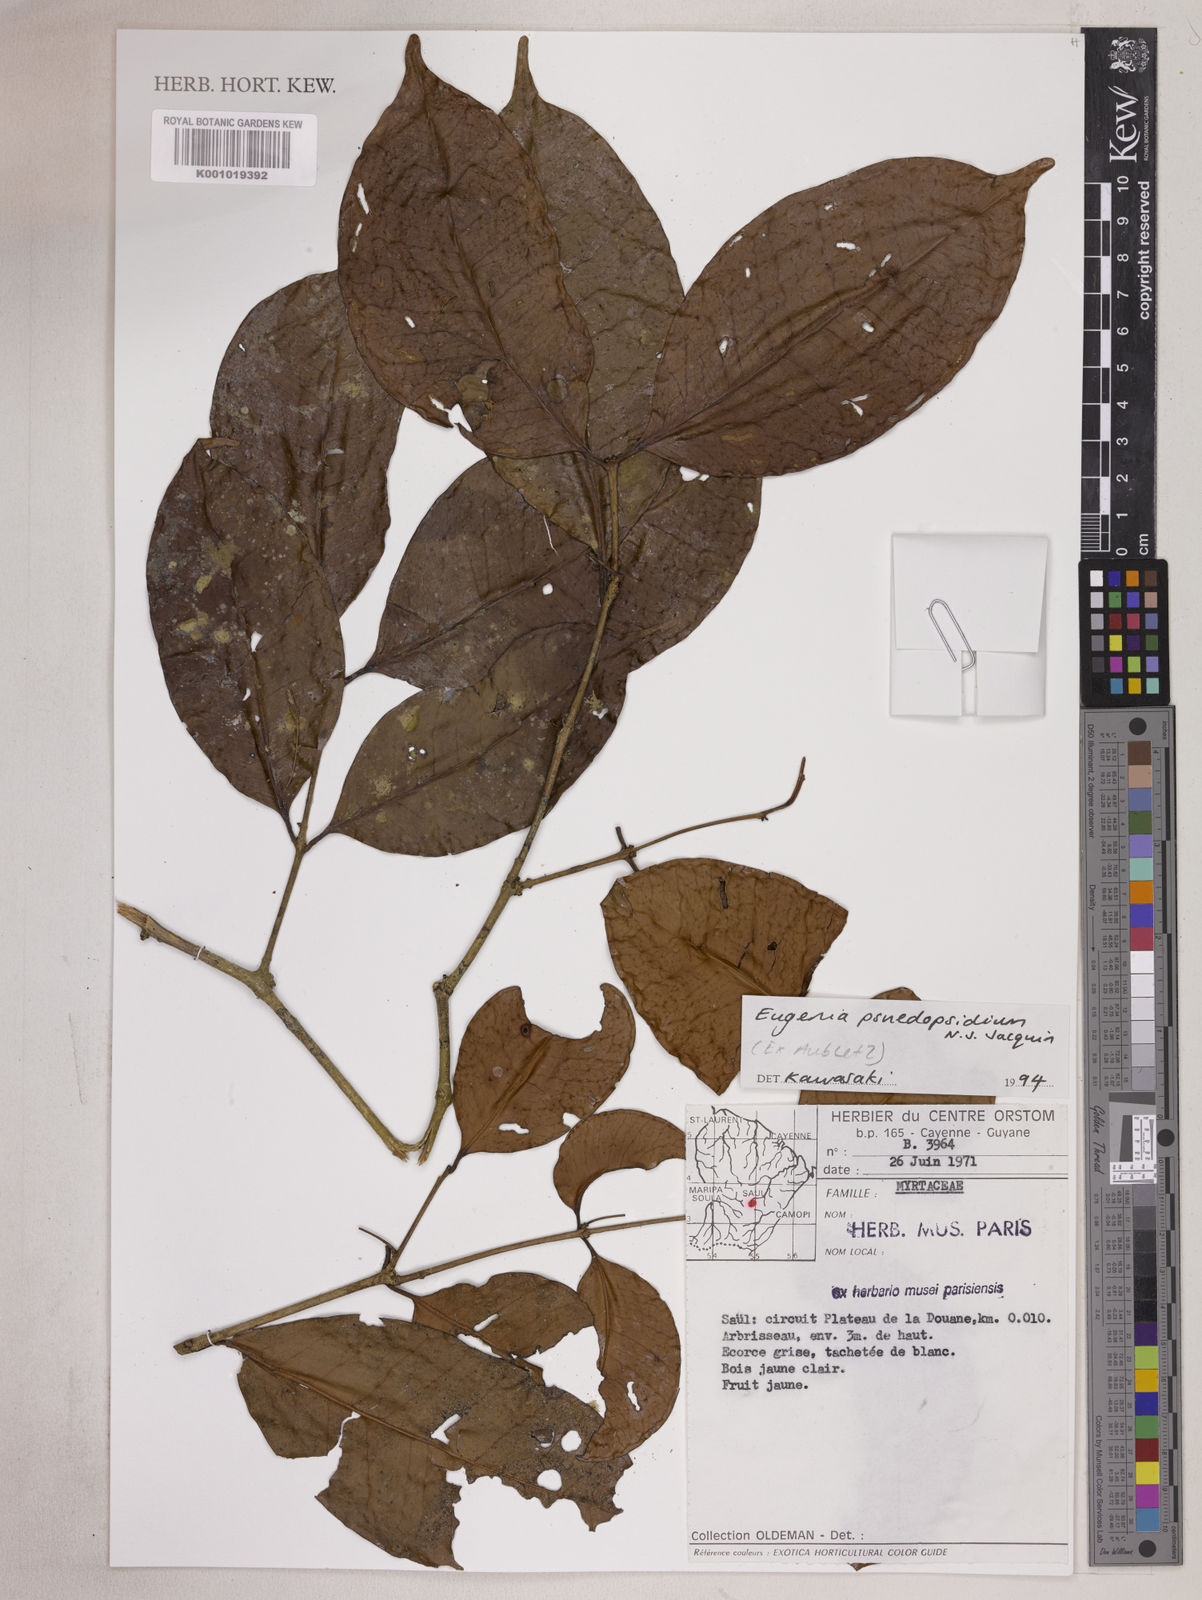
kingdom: Plantae
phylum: Tracheophyta
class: Magnoliopsida
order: Myrtales
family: Myrtaceae
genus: Eugenia
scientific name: Eugenia pseudopsidium
